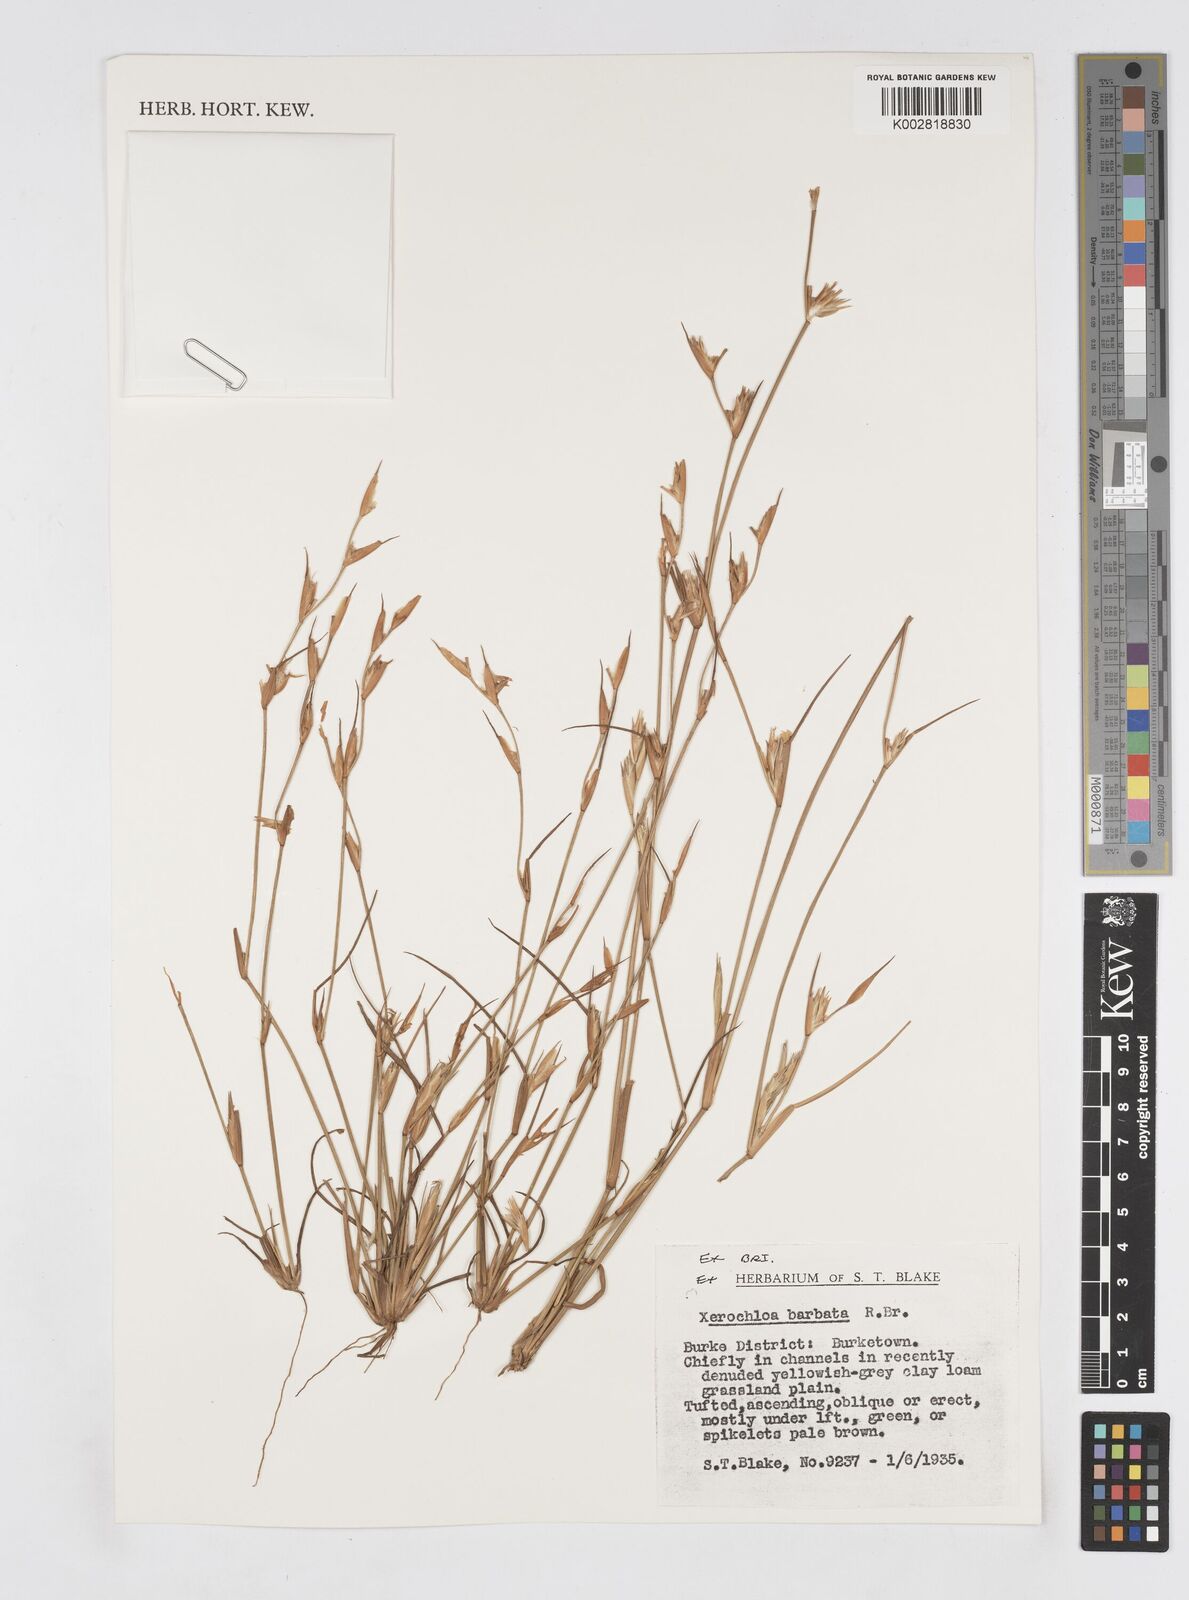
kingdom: Plantae
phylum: Tracheophyta
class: Liliopsida
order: Poales
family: Poaceae
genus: Xerochloa
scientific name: Xerochloa barbata
